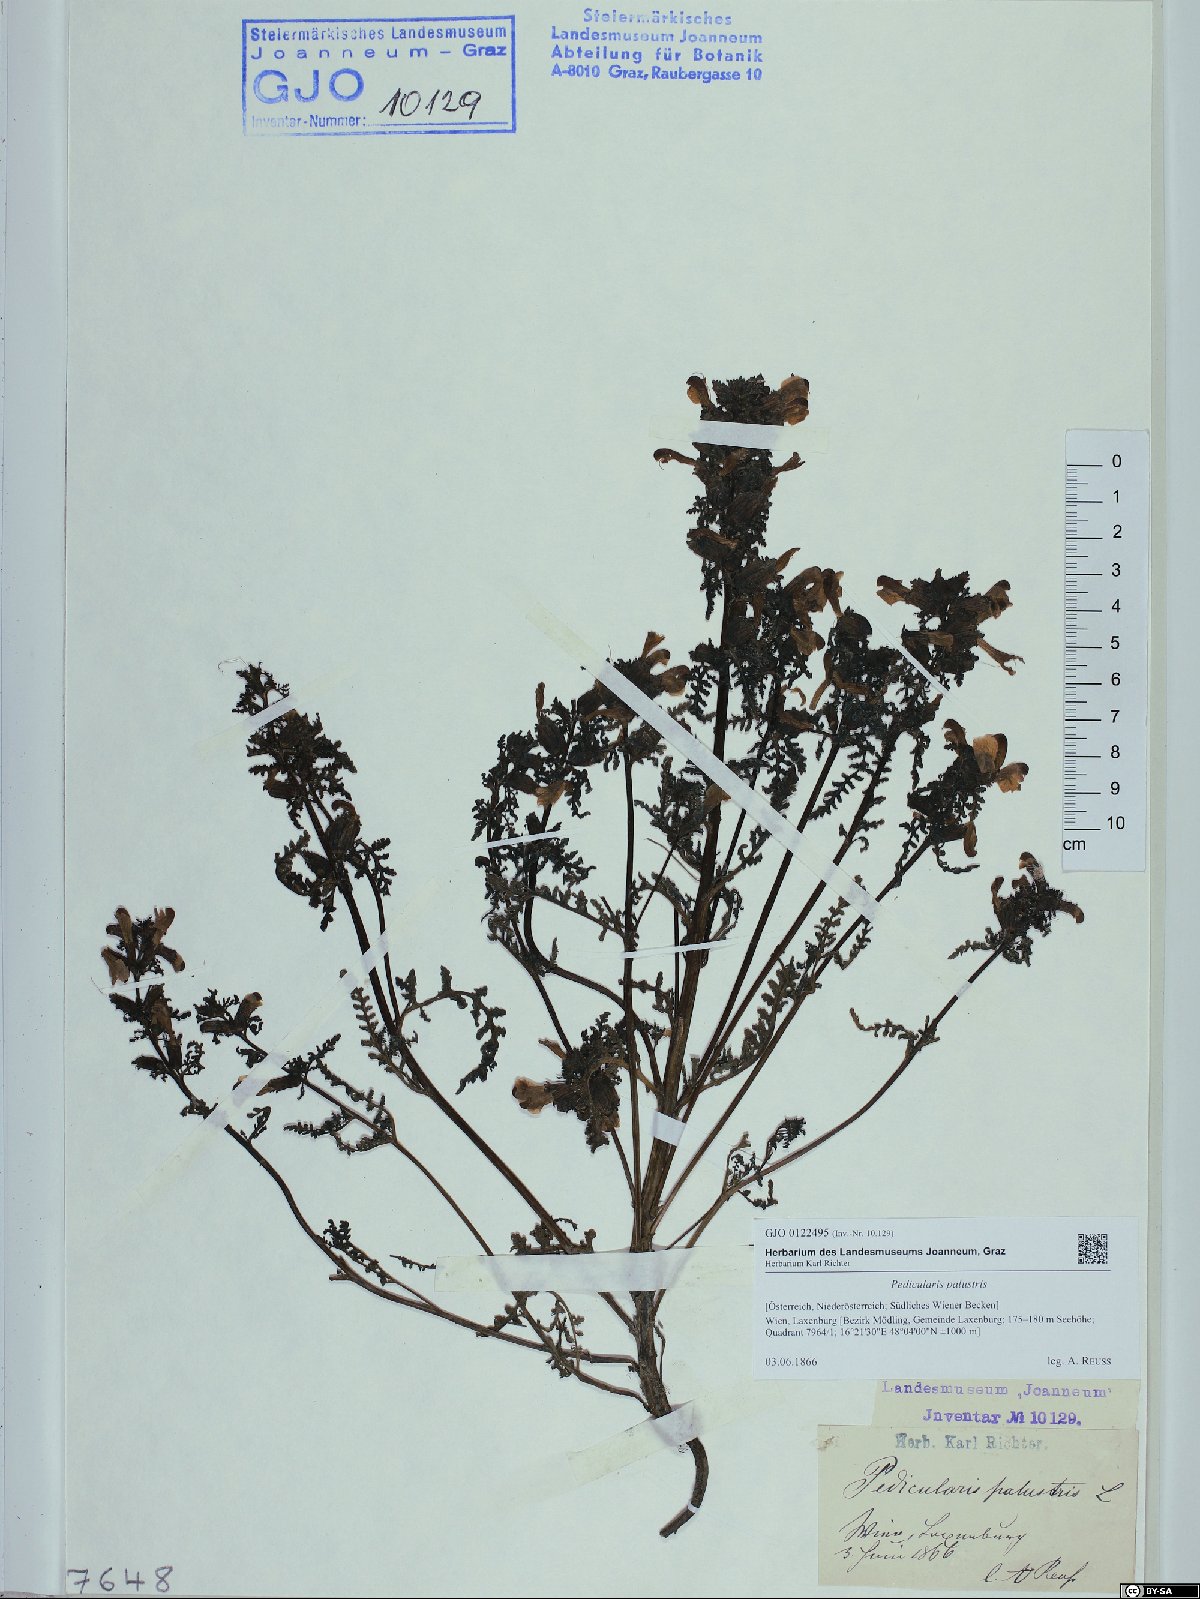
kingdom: Plantae
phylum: Tracheophyta
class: Magnoliopsida
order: Lamiales
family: Orobanchaceae
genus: Pedicularis
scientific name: Pedicularis palustris
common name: Marsh lousewort
